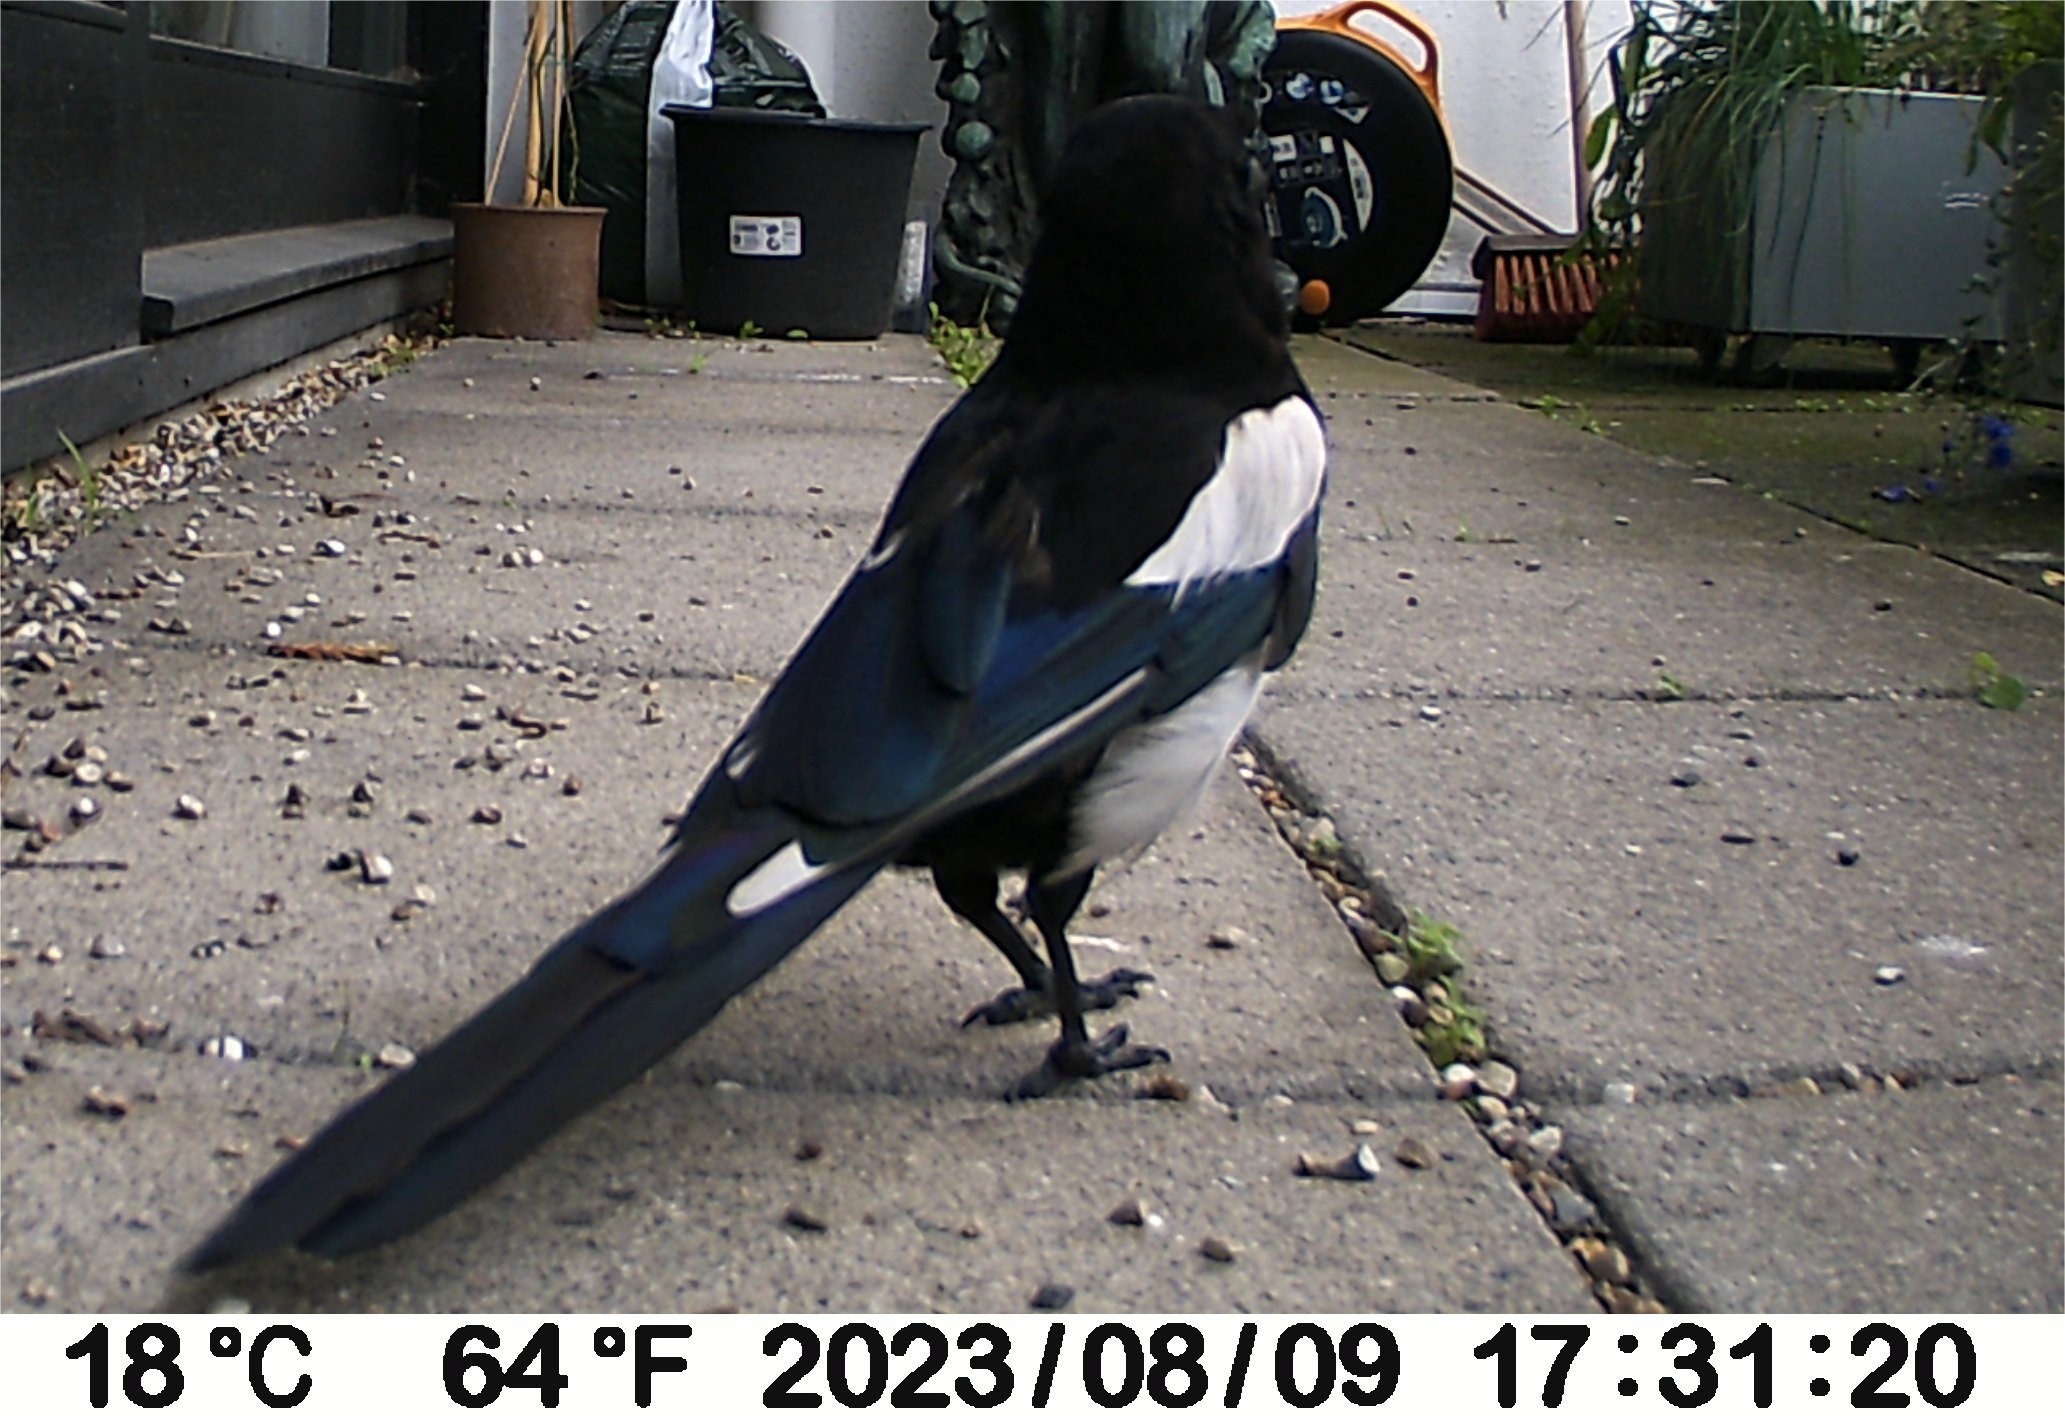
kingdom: Animalia
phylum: Chordata
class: Aves
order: Passeriformes
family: Corvidae
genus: Pica
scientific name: Pica pica
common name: Husskade
